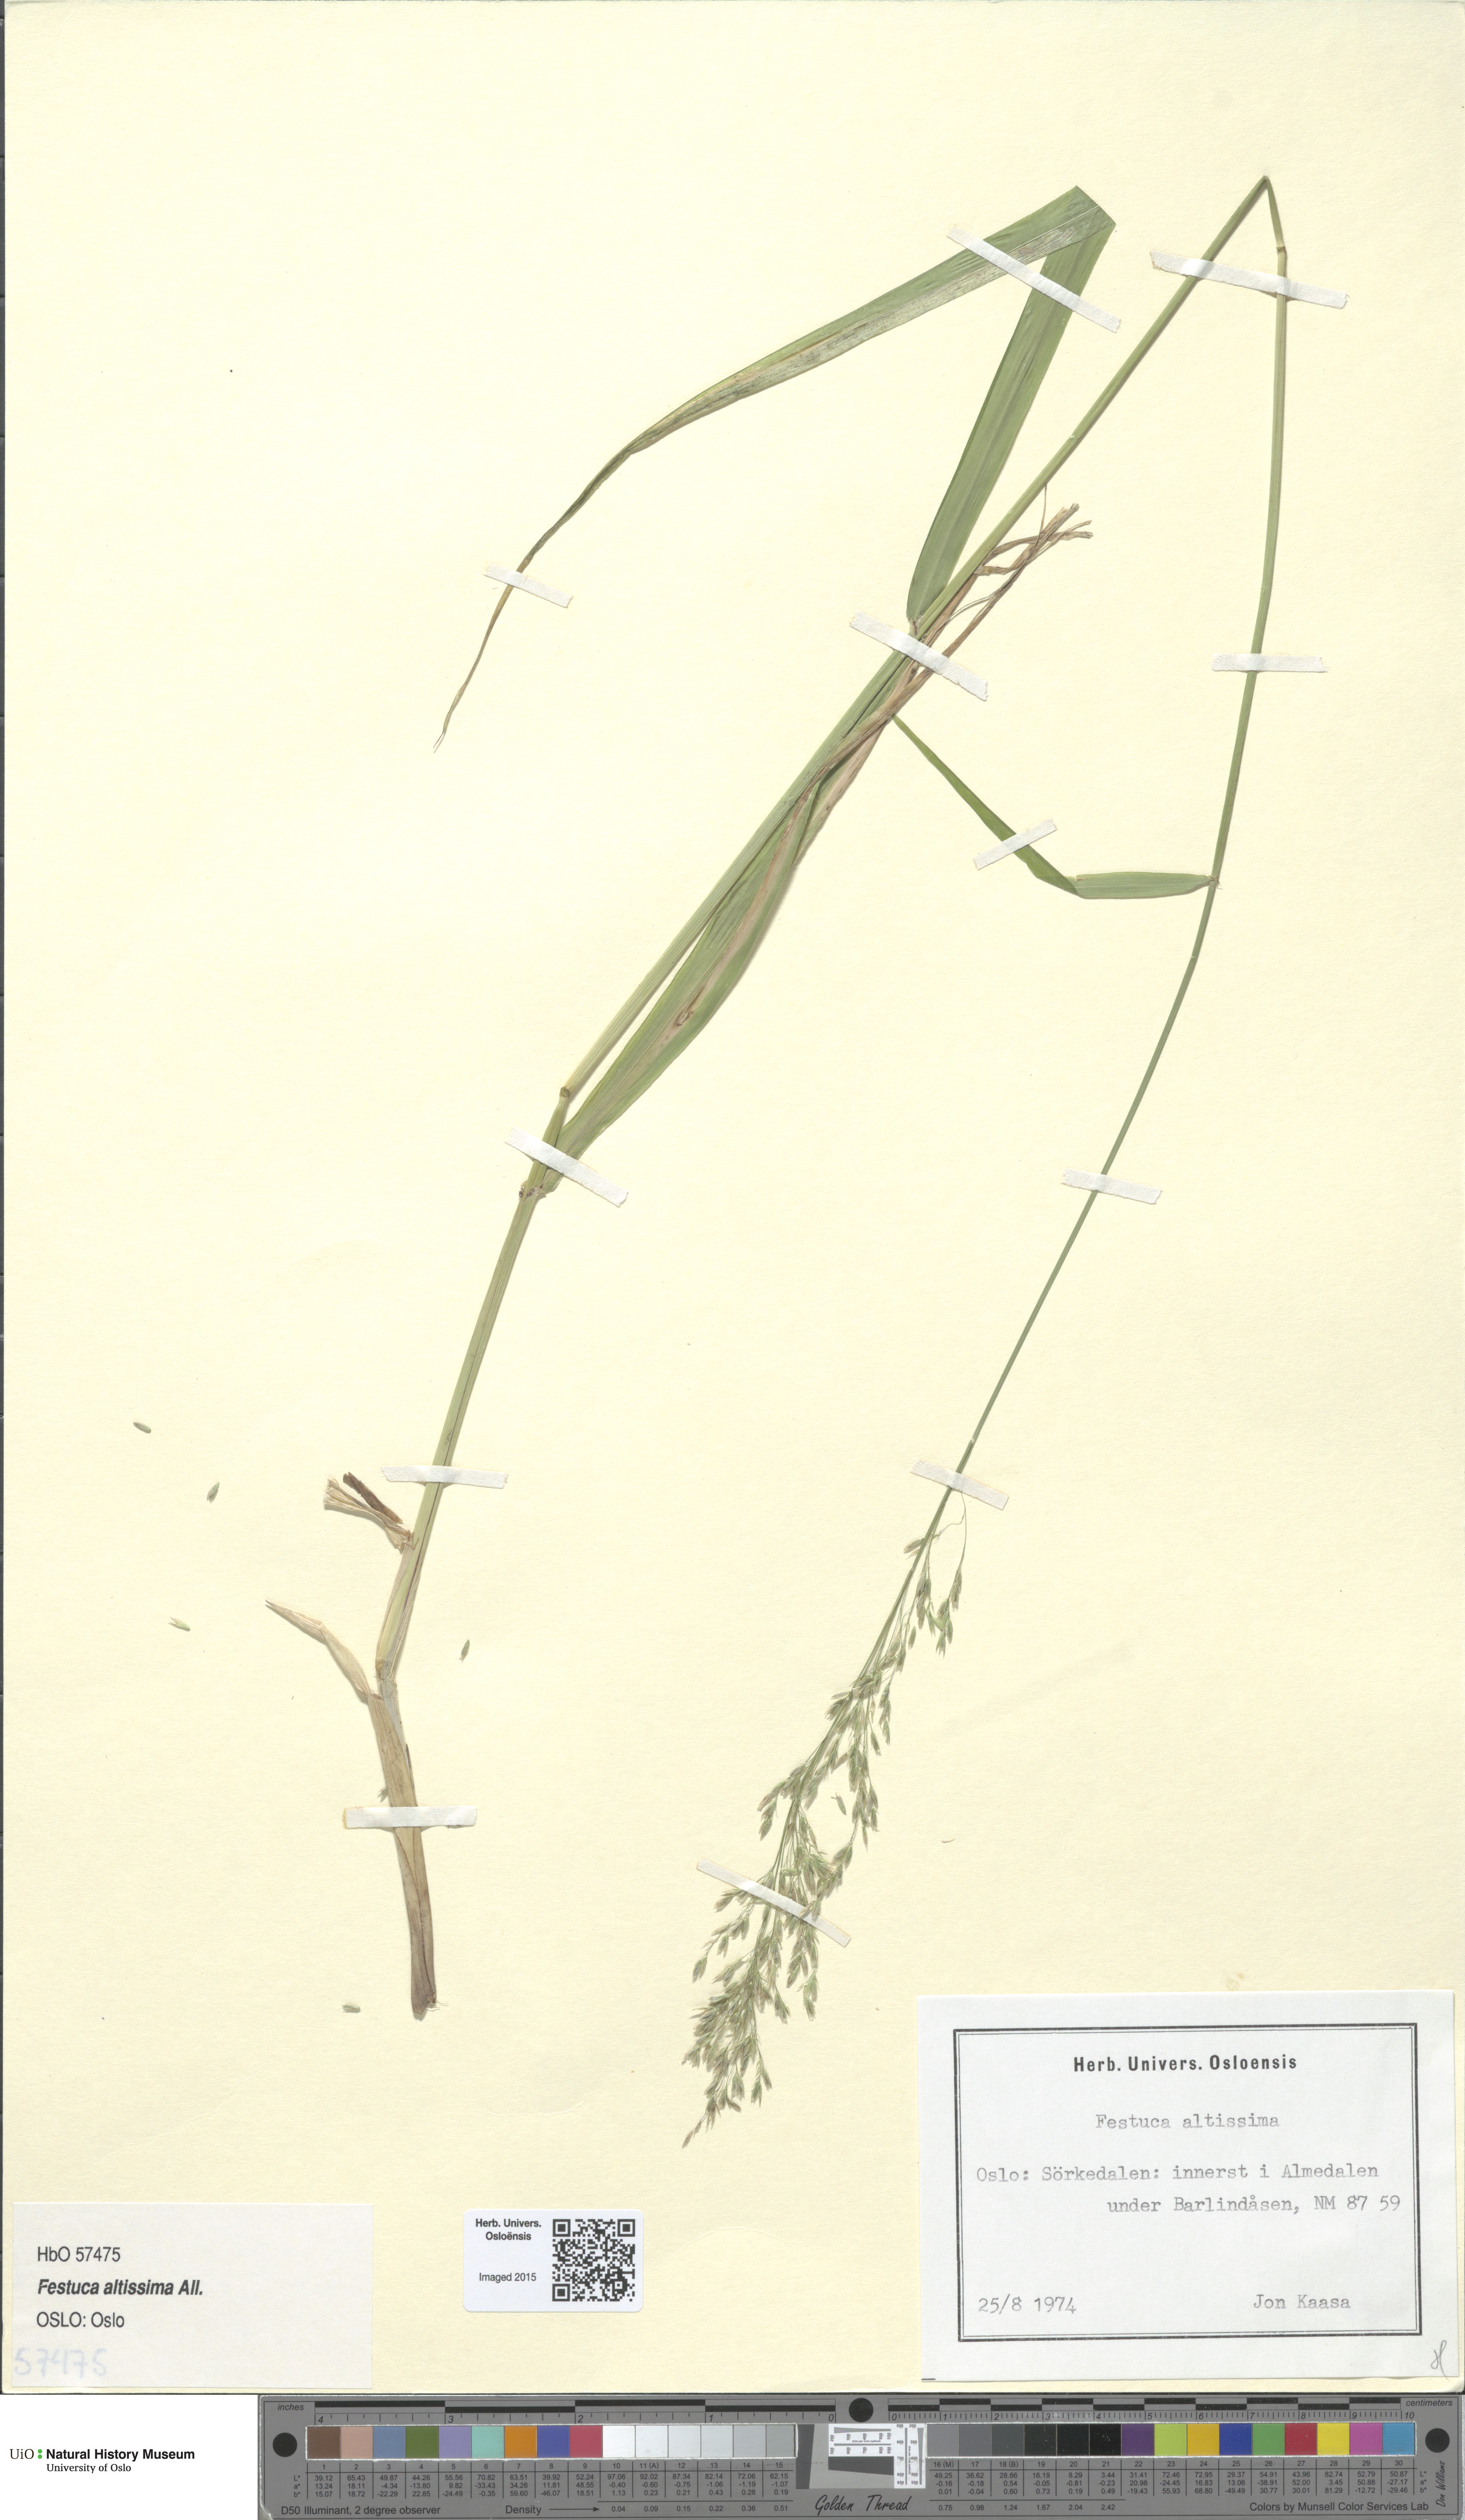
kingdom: Plantae
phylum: Tracheophyta
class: Liliopsida
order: Poales
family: Poaceae
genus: Festuca
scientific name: Festuca altissima
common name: Wood fescue
